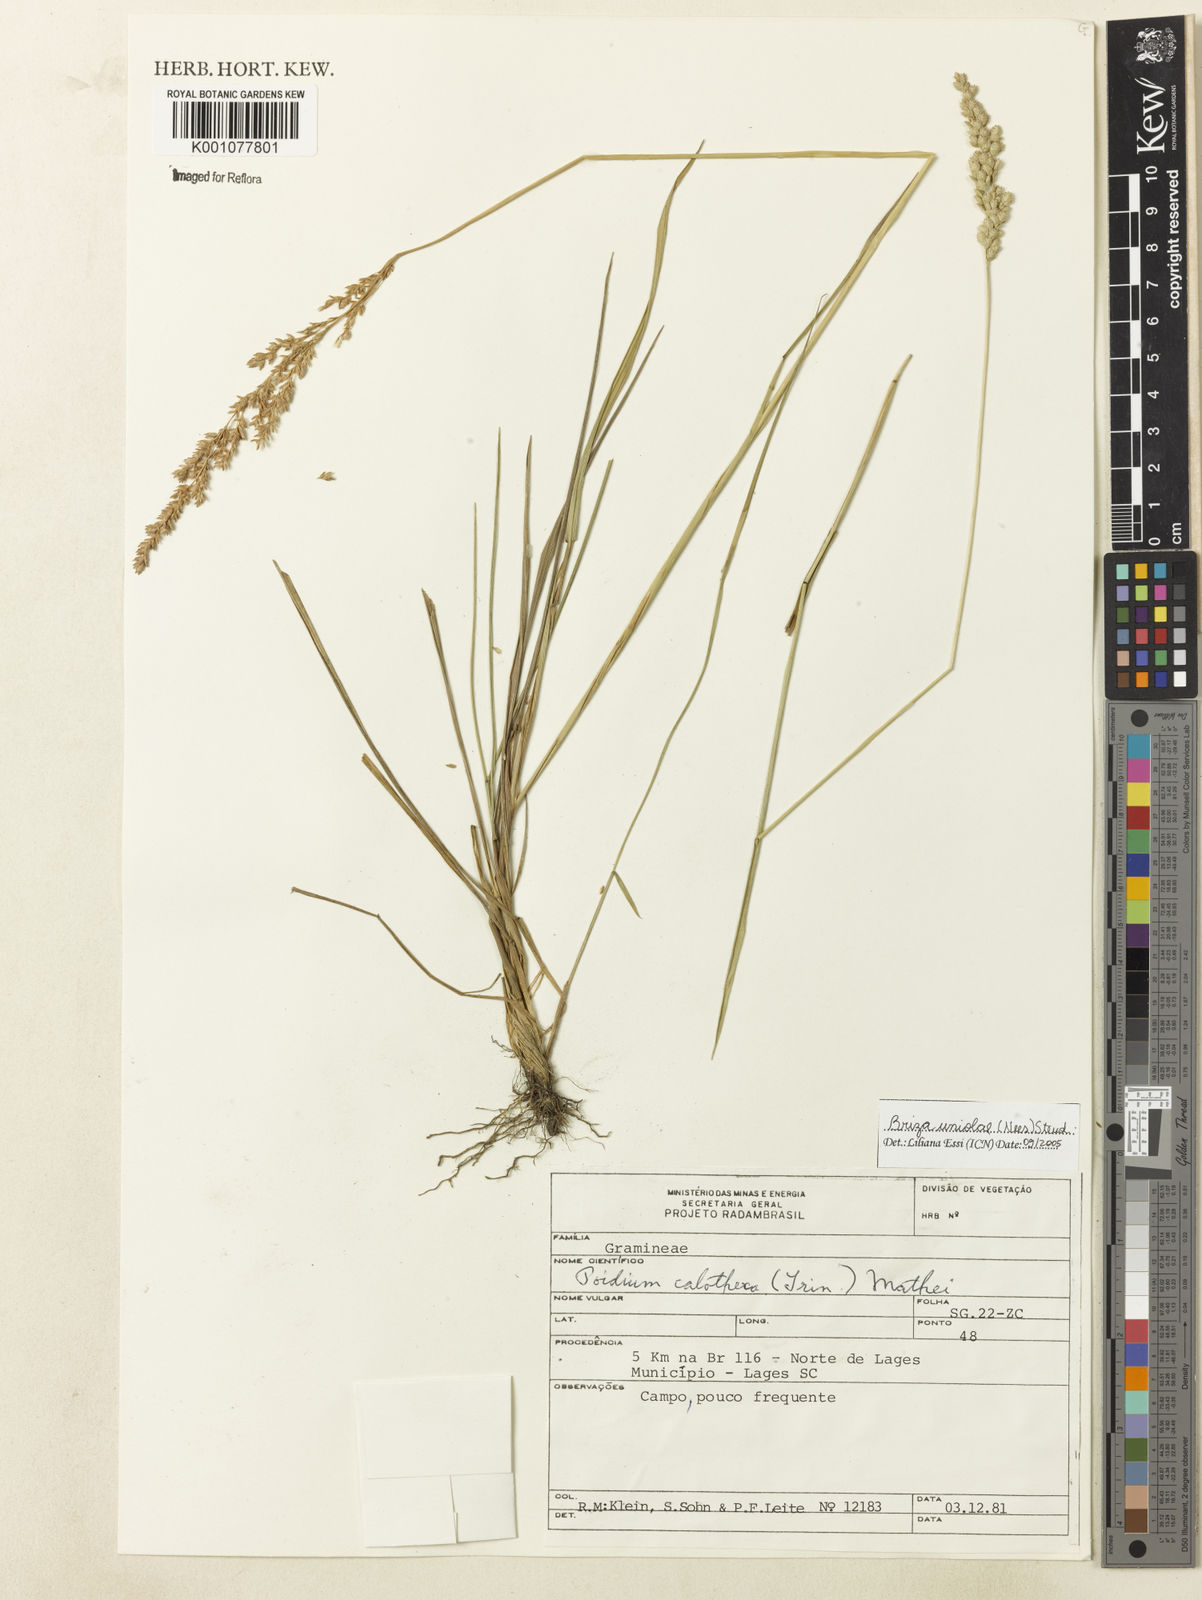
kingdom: Plantae
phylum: Tracheophyta
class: Liliopsida
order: Poales
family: Poaceae
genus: Poidium
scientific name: Poidium uniolae
